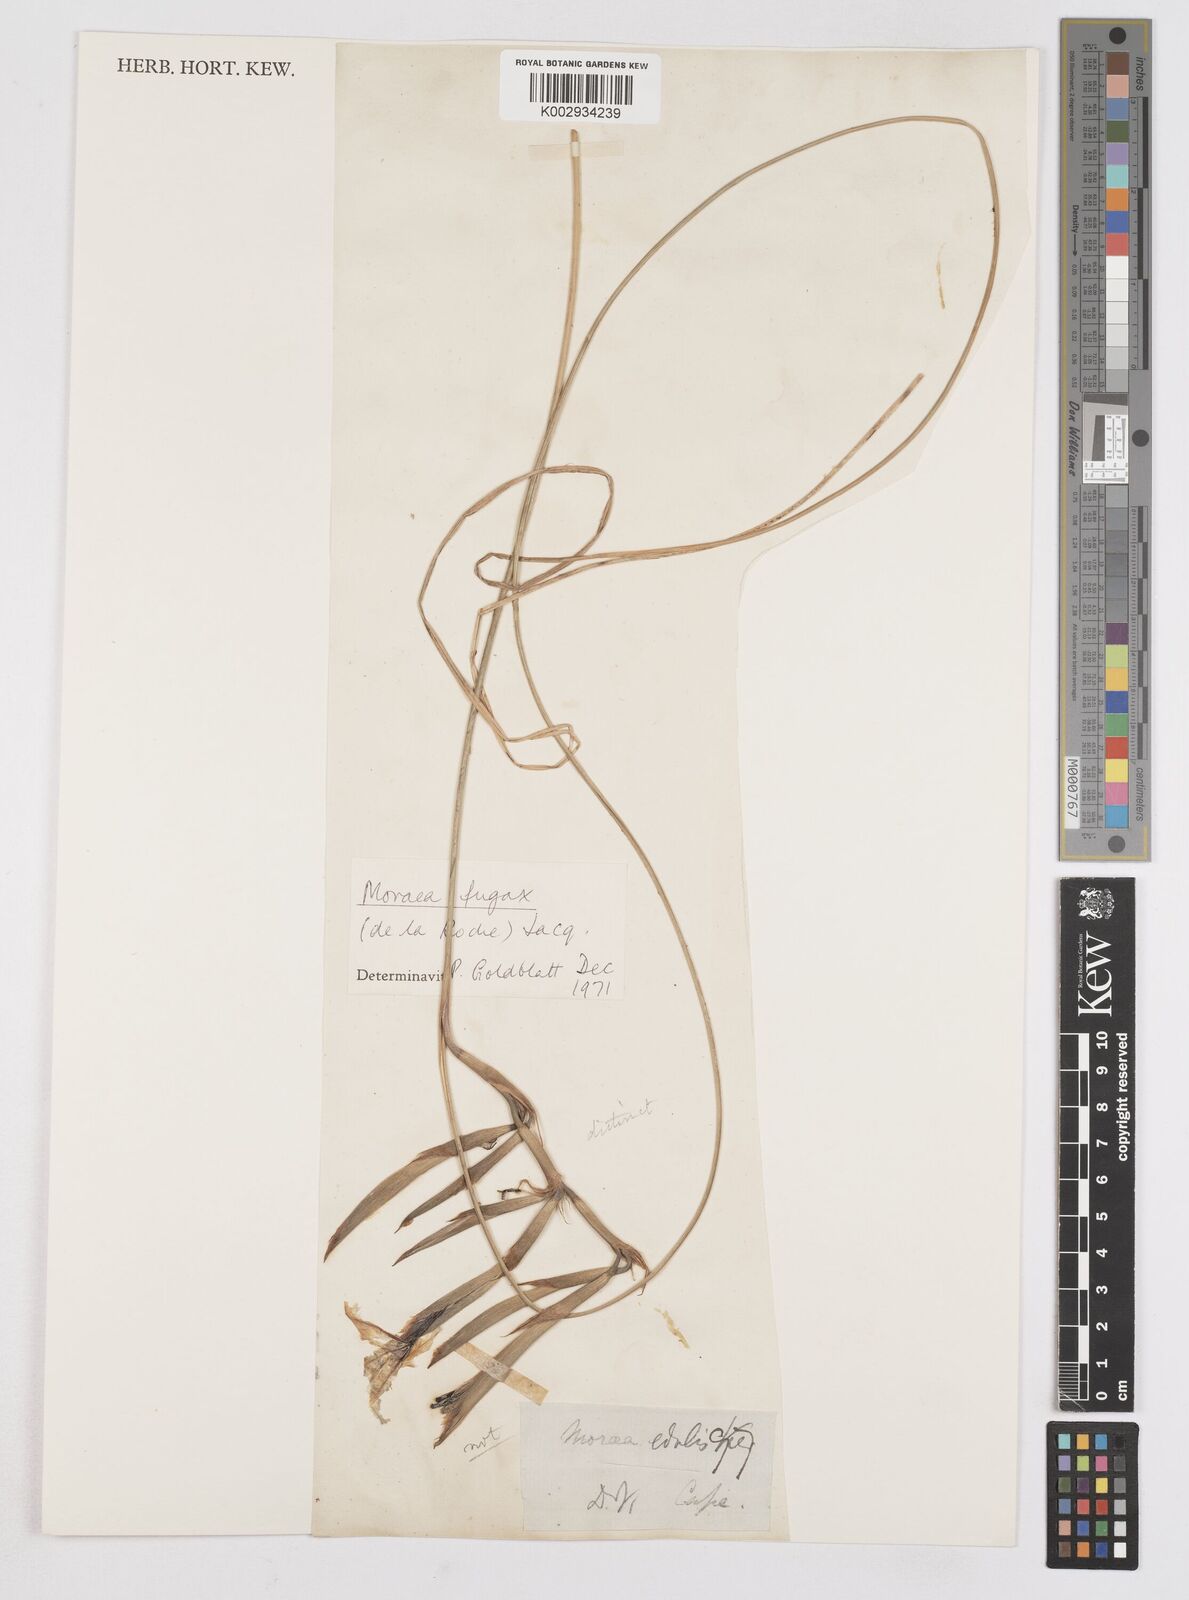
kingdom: Plantae
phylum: Tracheophyta
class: Liliopsida
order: Asparagales
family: Iridaceae
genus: Moraea
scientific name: Moraea fugax
